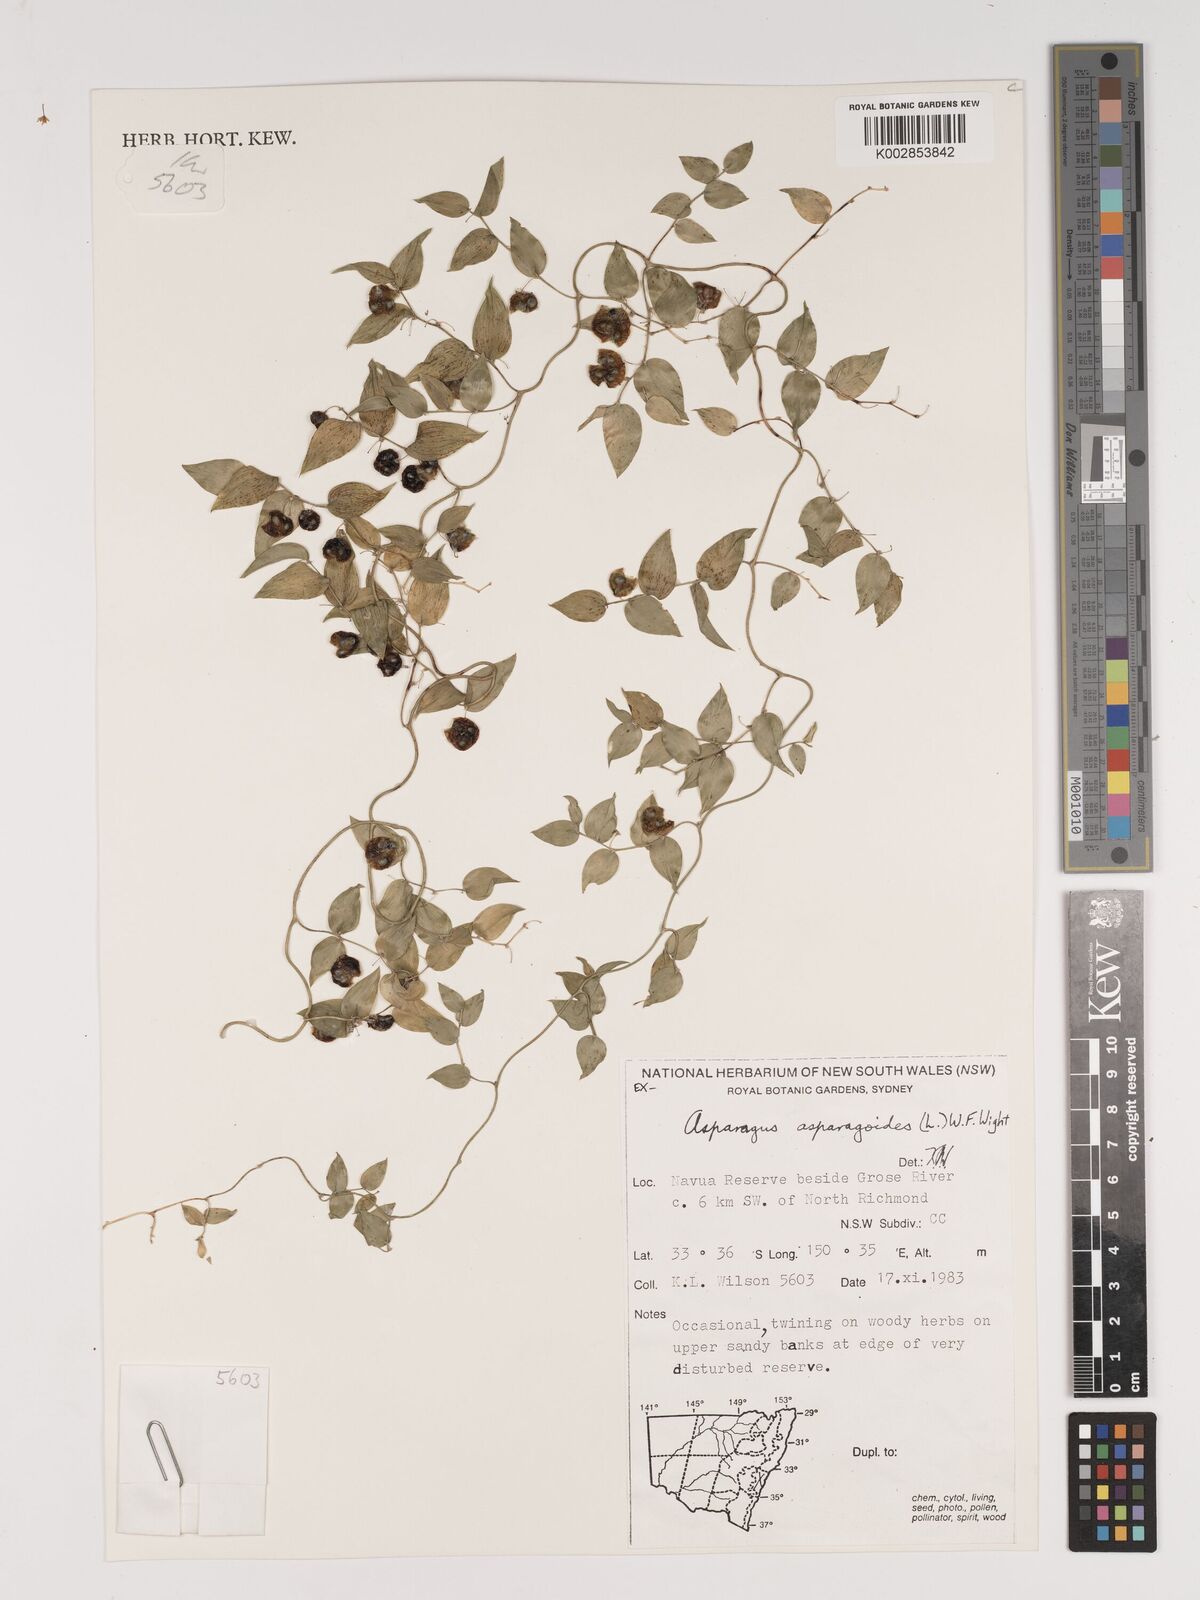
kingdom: Plantae
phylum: Tracheophyta
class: Liliopsida
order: Asparagales
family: Asparagaceae
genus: Asparagus
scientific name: Asparagus asparagoides
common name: African asparagus fern
